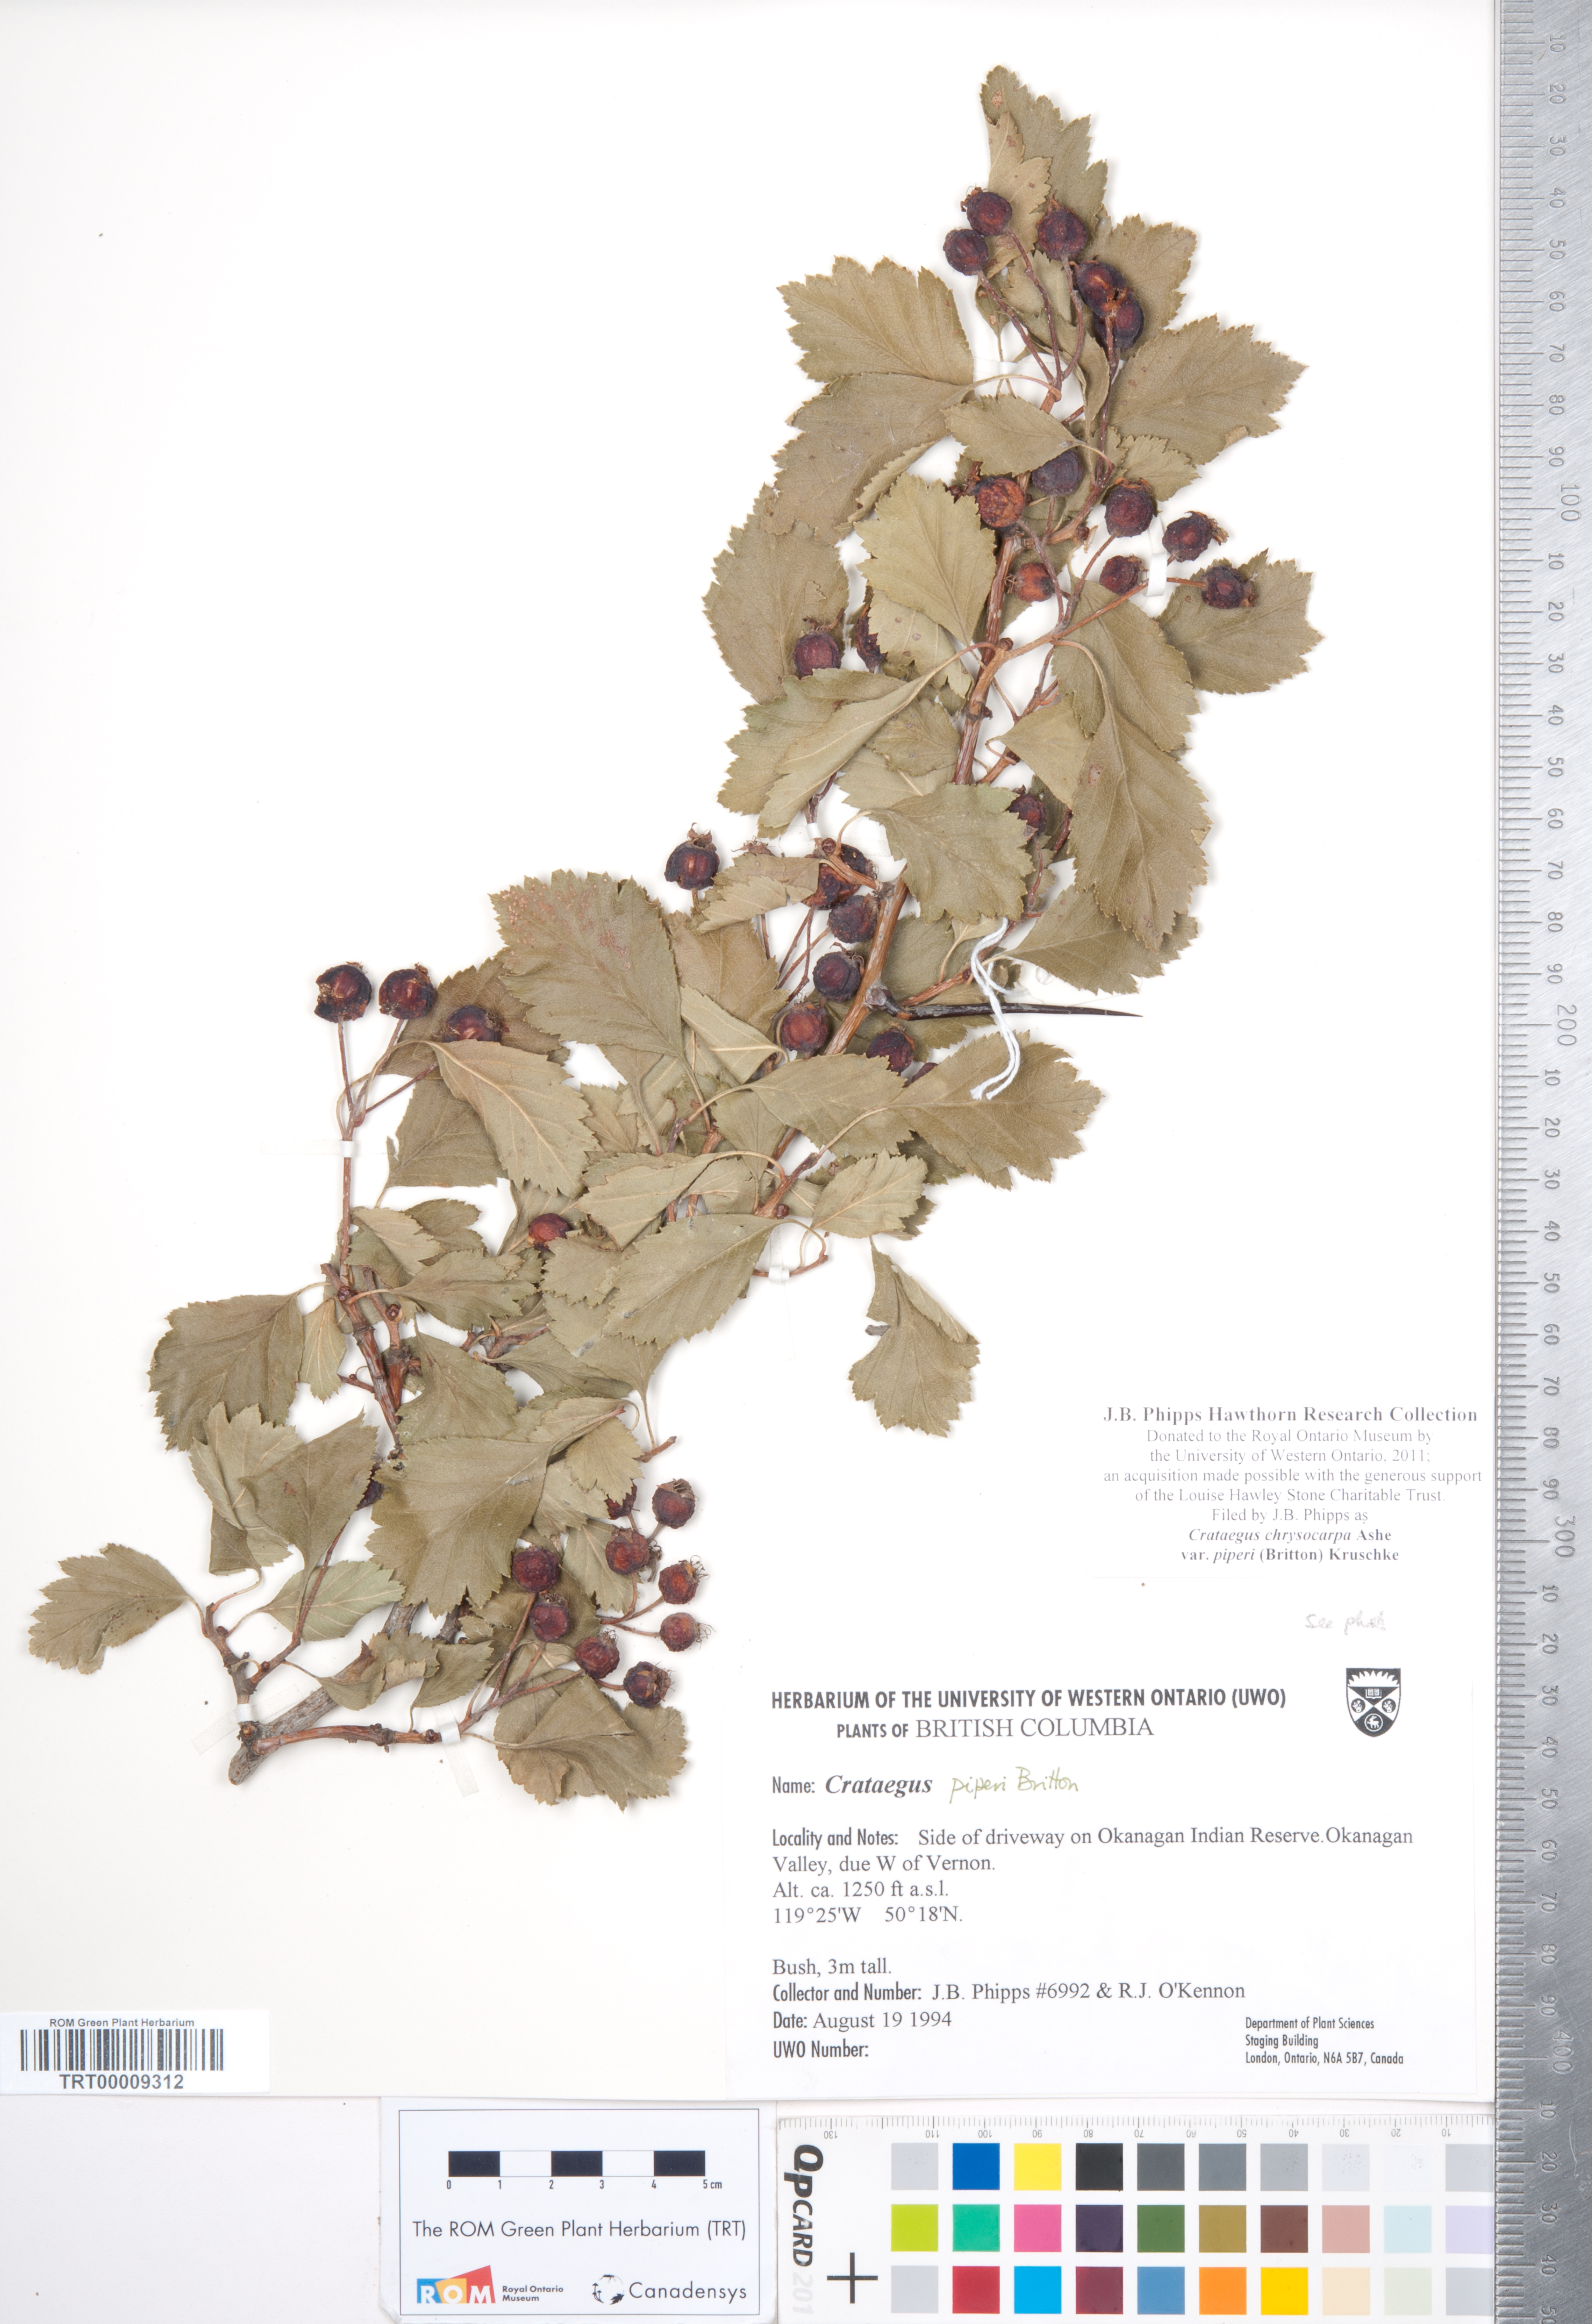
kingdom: Plantae
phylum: Tracheophyta
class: Magnoliopsida
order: Rosales
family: Rosaceae
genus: Crataegus
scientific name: Crataegus piperi
